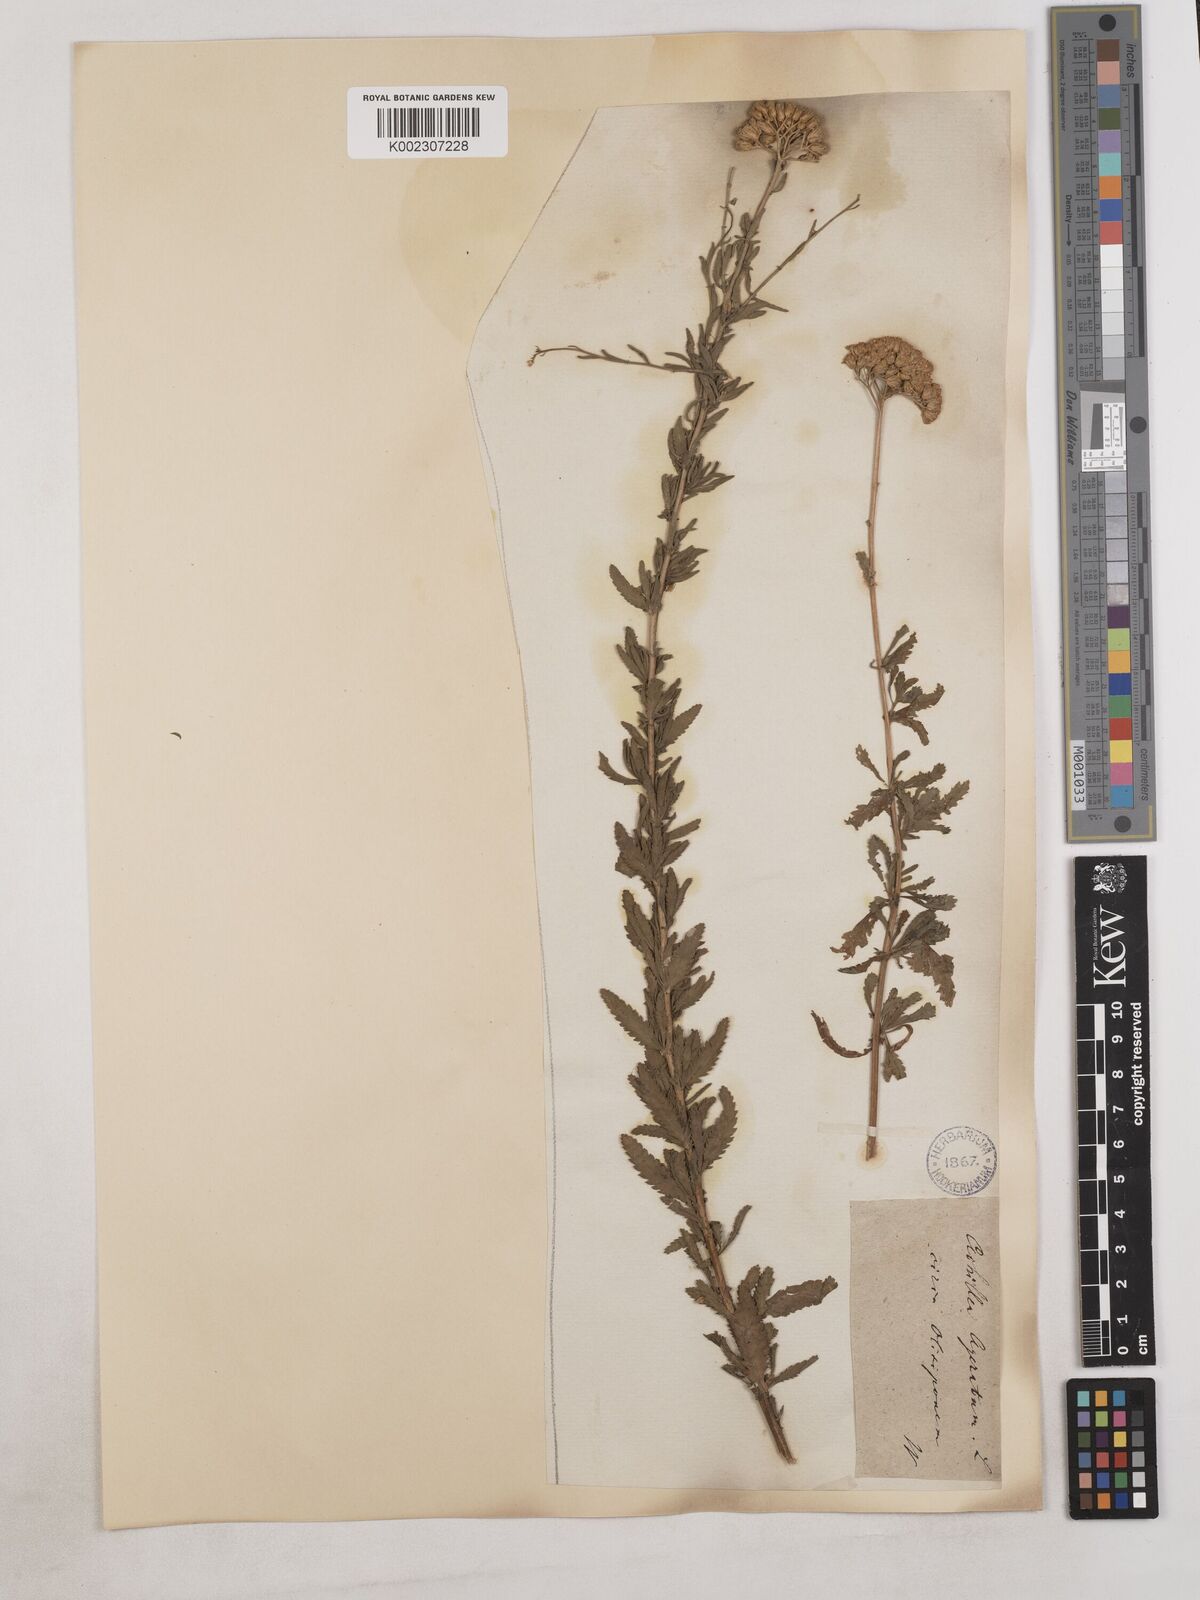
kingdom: Plantae
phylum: Tracheophyta
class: Magnoliopsida
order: Asterales
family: Asteraceae
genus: Achillea
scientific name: Achillea ageratum
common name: Sweet-nancy
